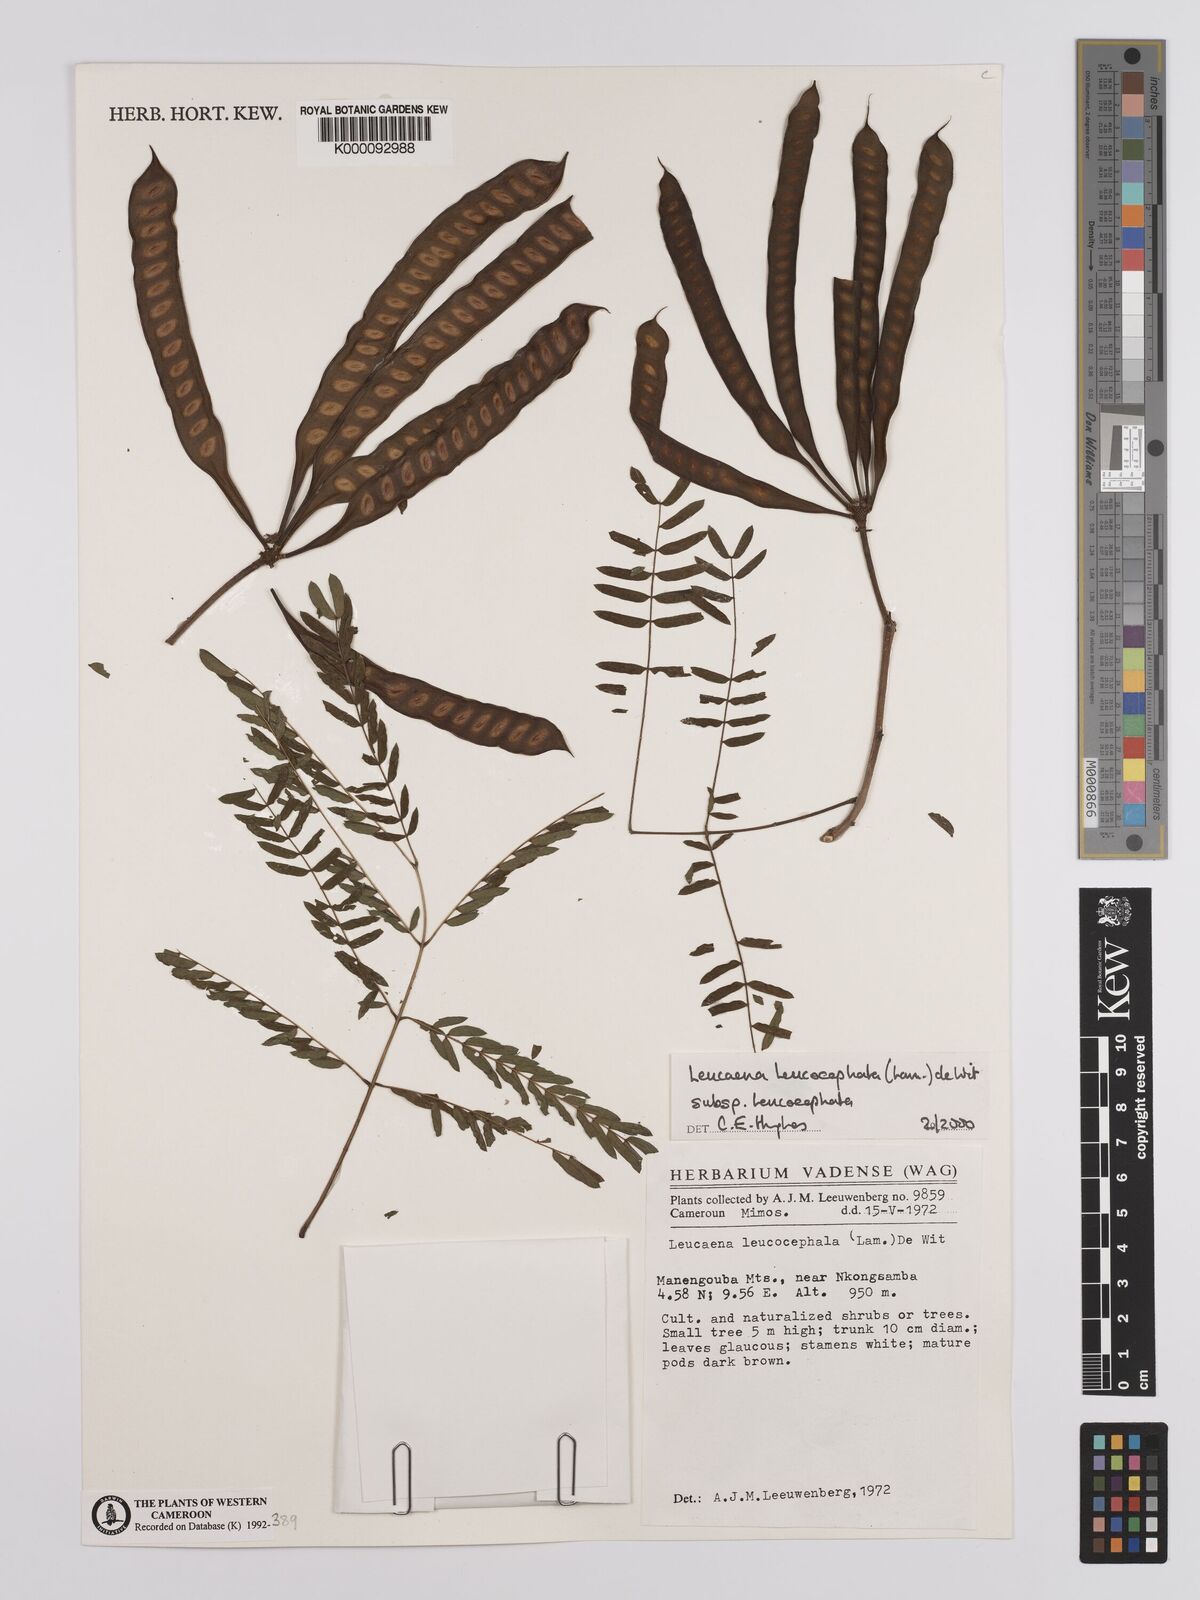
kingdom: Plantae
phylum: Tracheophyta
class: Magnoliopsida
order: Fabales
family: Fabaceae
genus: Leucaena
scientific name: Leucaena leucocephala
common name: White leadtree
